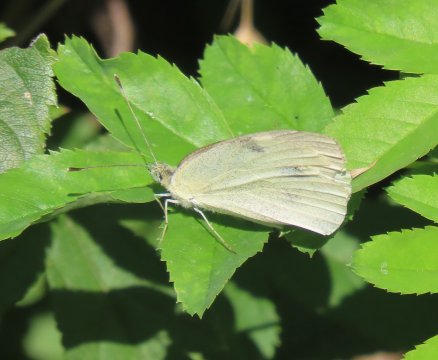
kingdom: Animalia
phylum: Arthropoda
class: Insecta
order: Lepidoptera
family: Pieridae
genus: Pieris
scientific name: Pieris rapae
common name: Cabbage White
